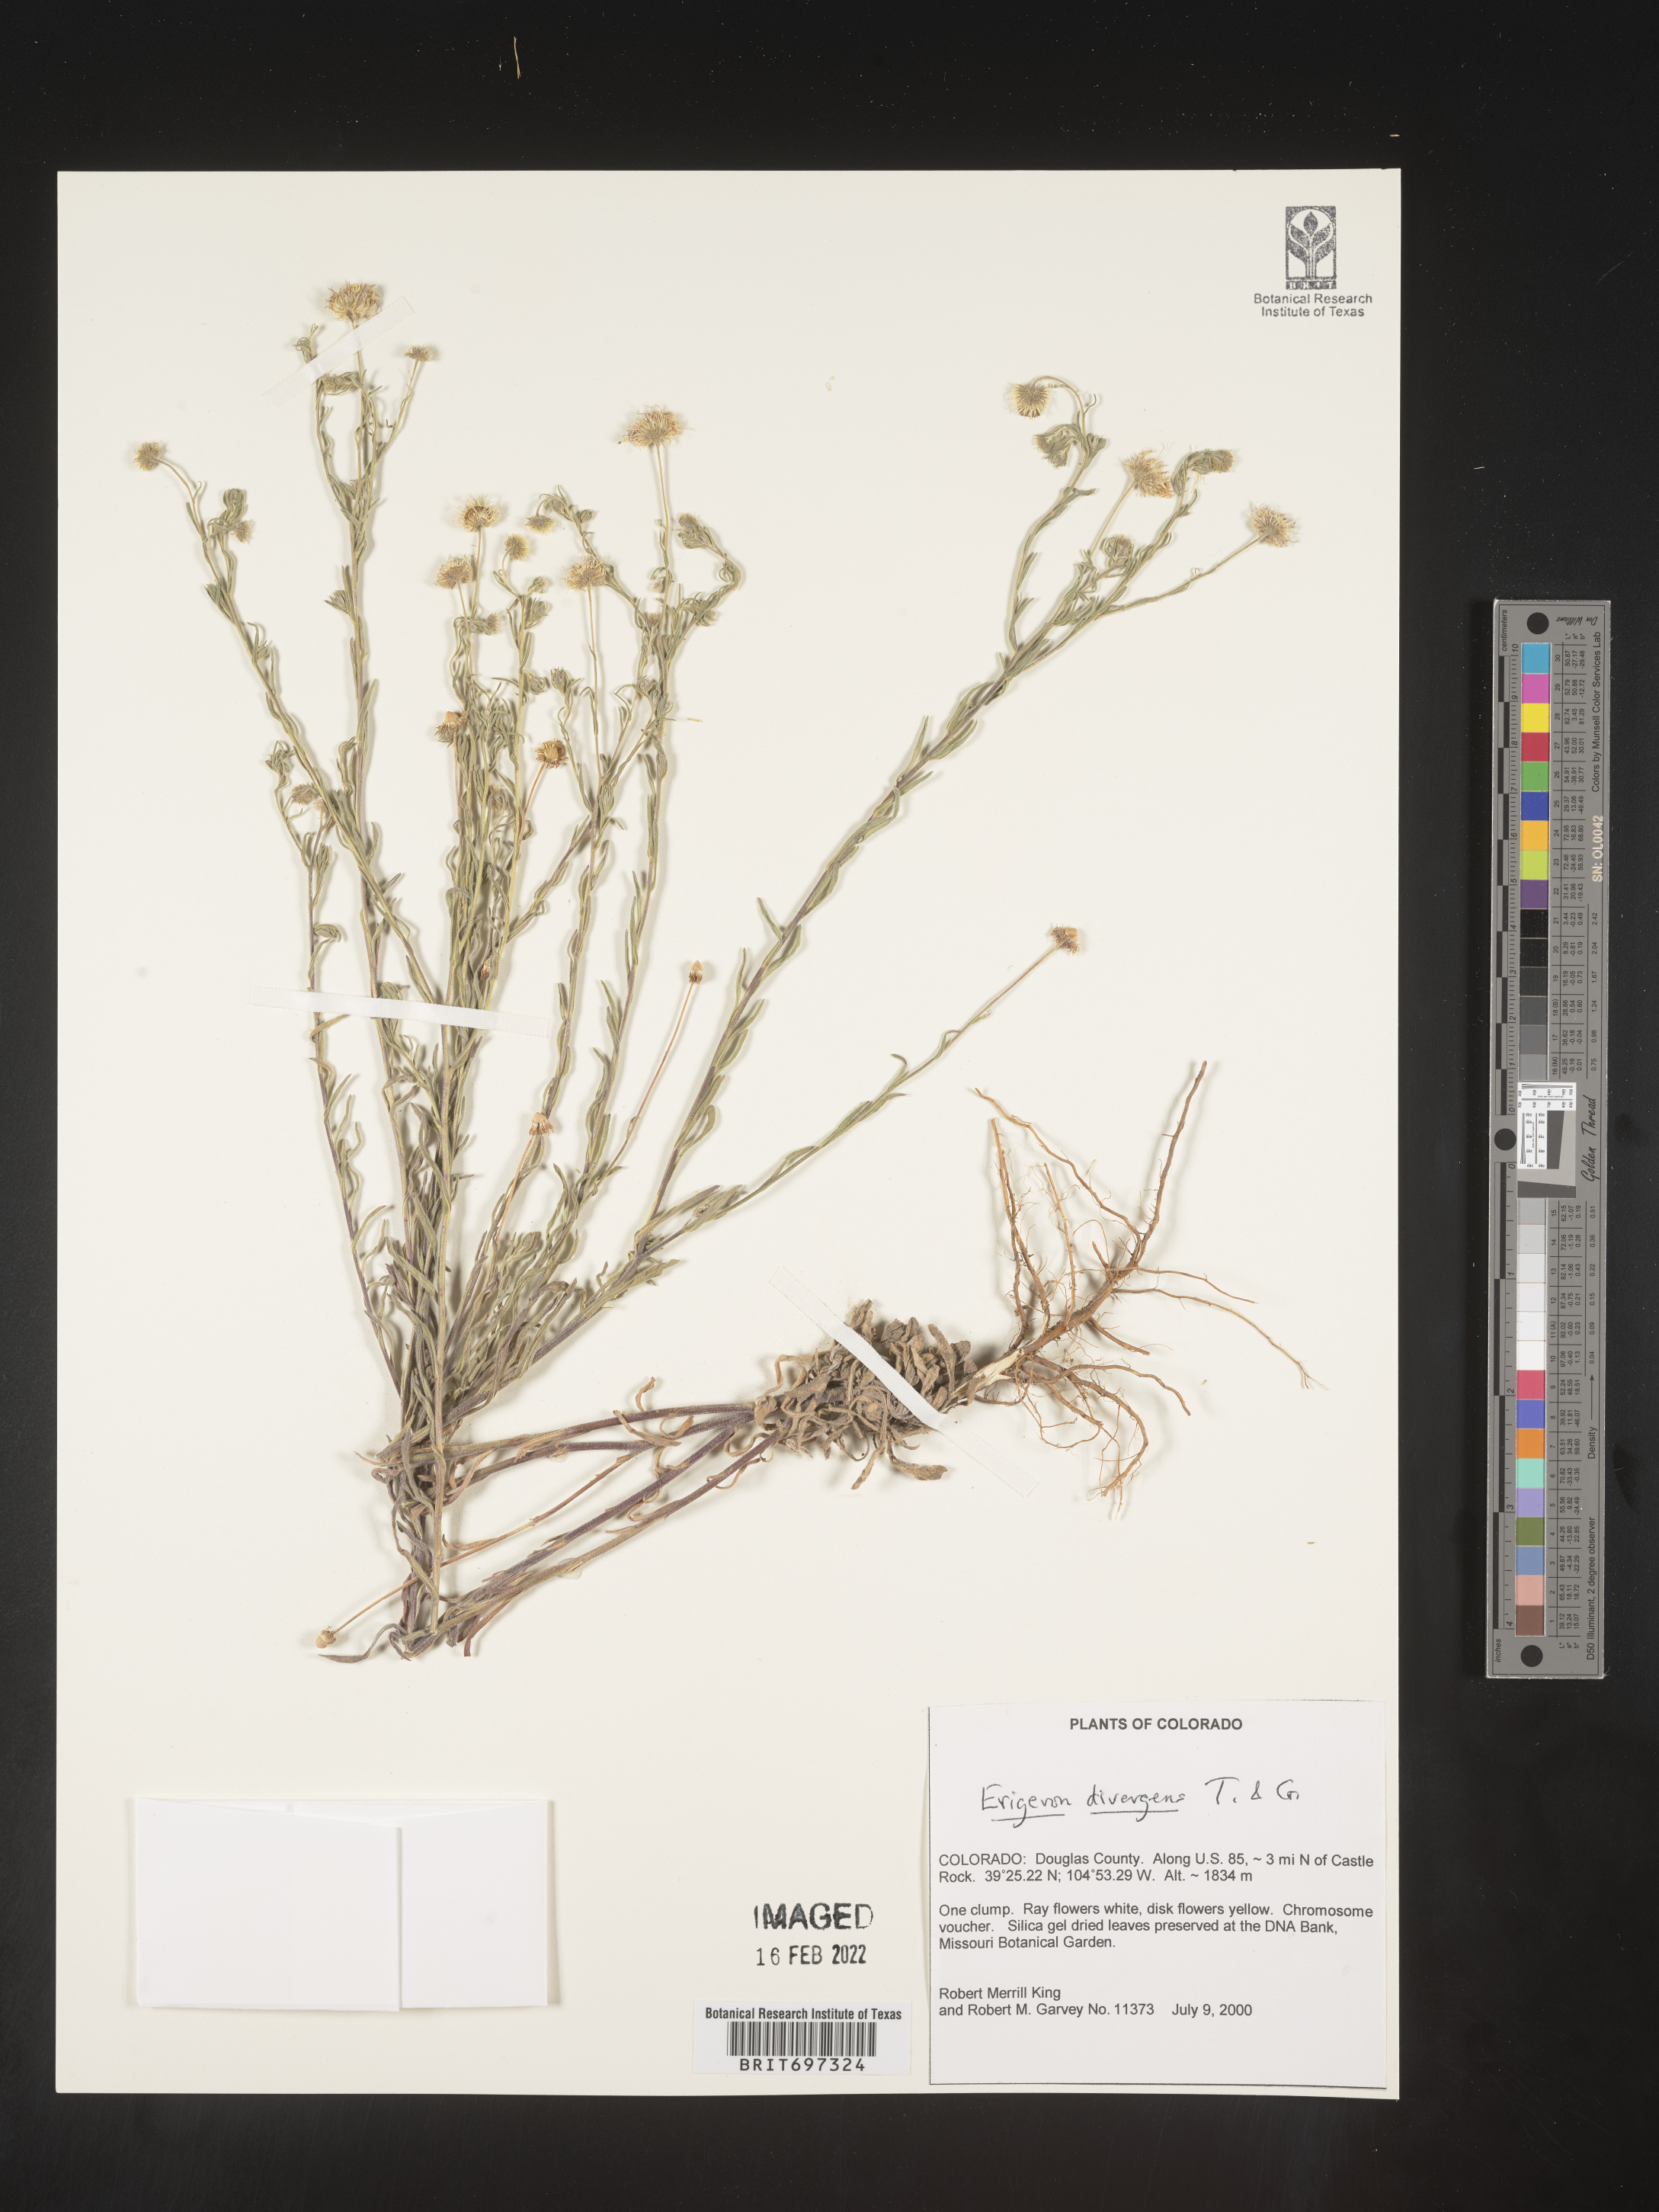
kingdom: Plantae
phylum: Tracheophyta
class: Magnoliopsida
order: Asterales
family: Asteraceae
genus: Erigeron
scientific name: Erigeron divergens
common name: Diffuse fleabane
